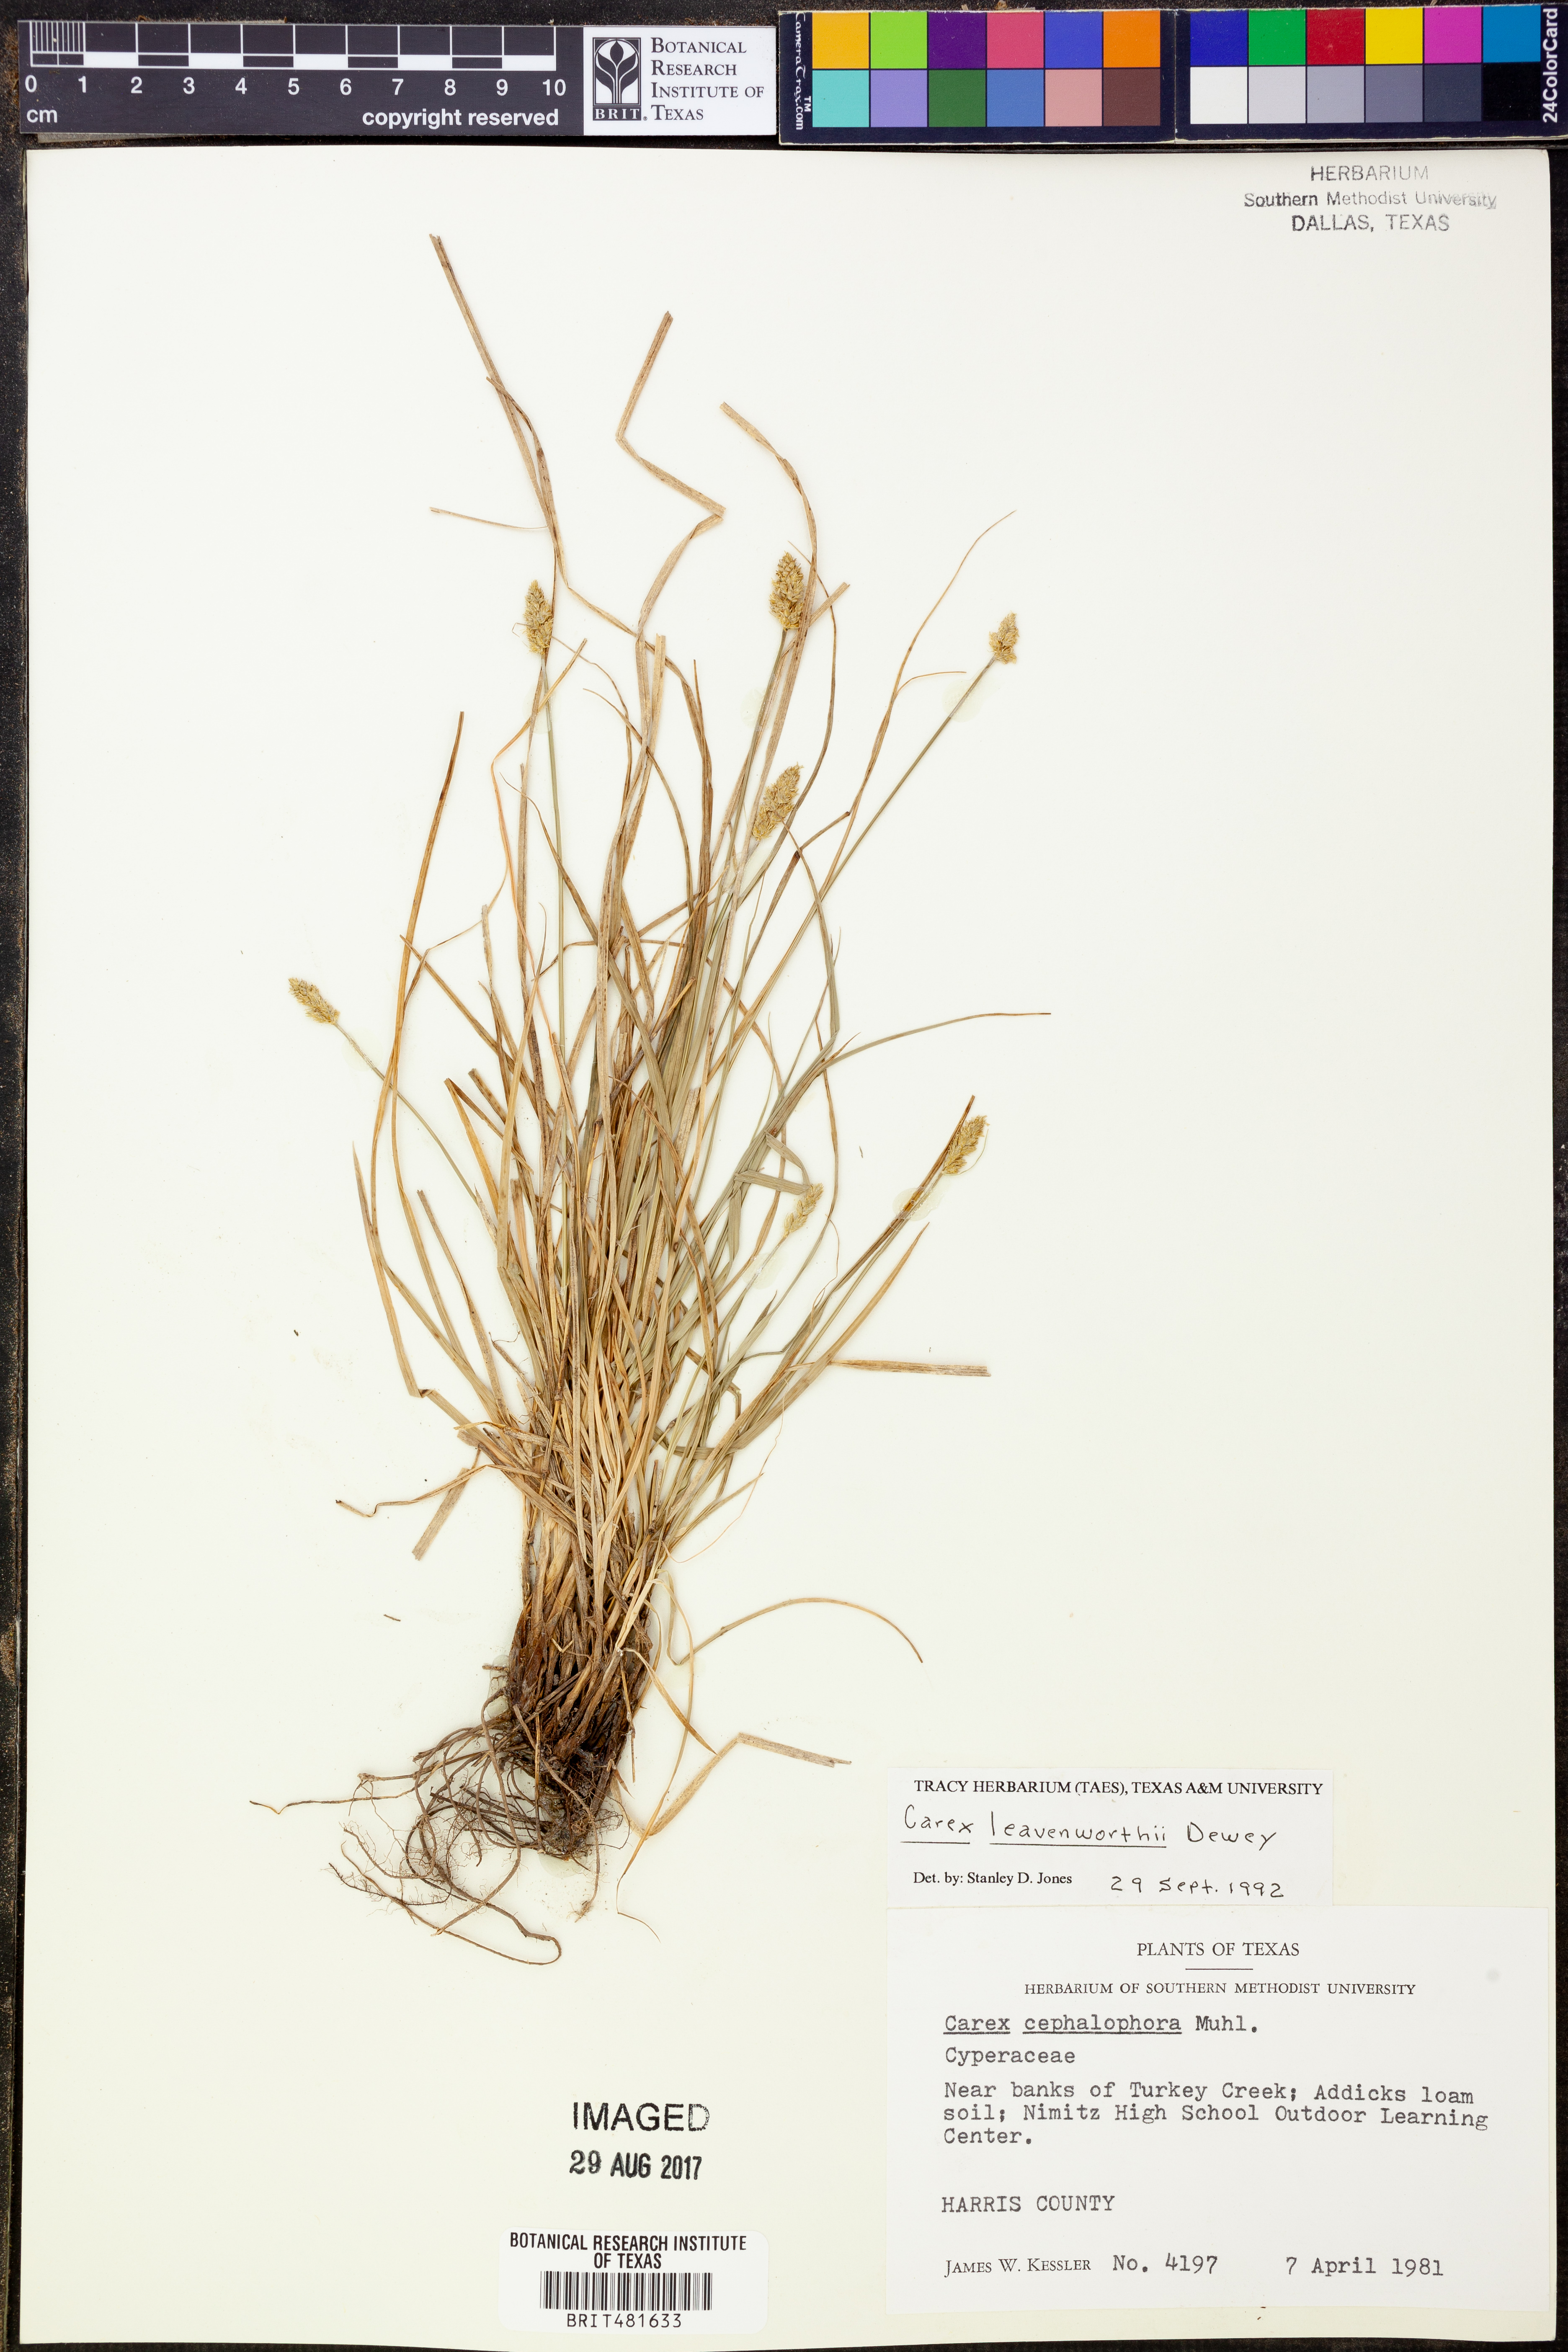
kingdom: Plantae
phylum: Tracheophyta
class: Liliopsida
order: Poales
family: Cyperaceae
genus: Carex
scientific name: Carex leavenworthii
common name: Leavenworth's bracted sedge
